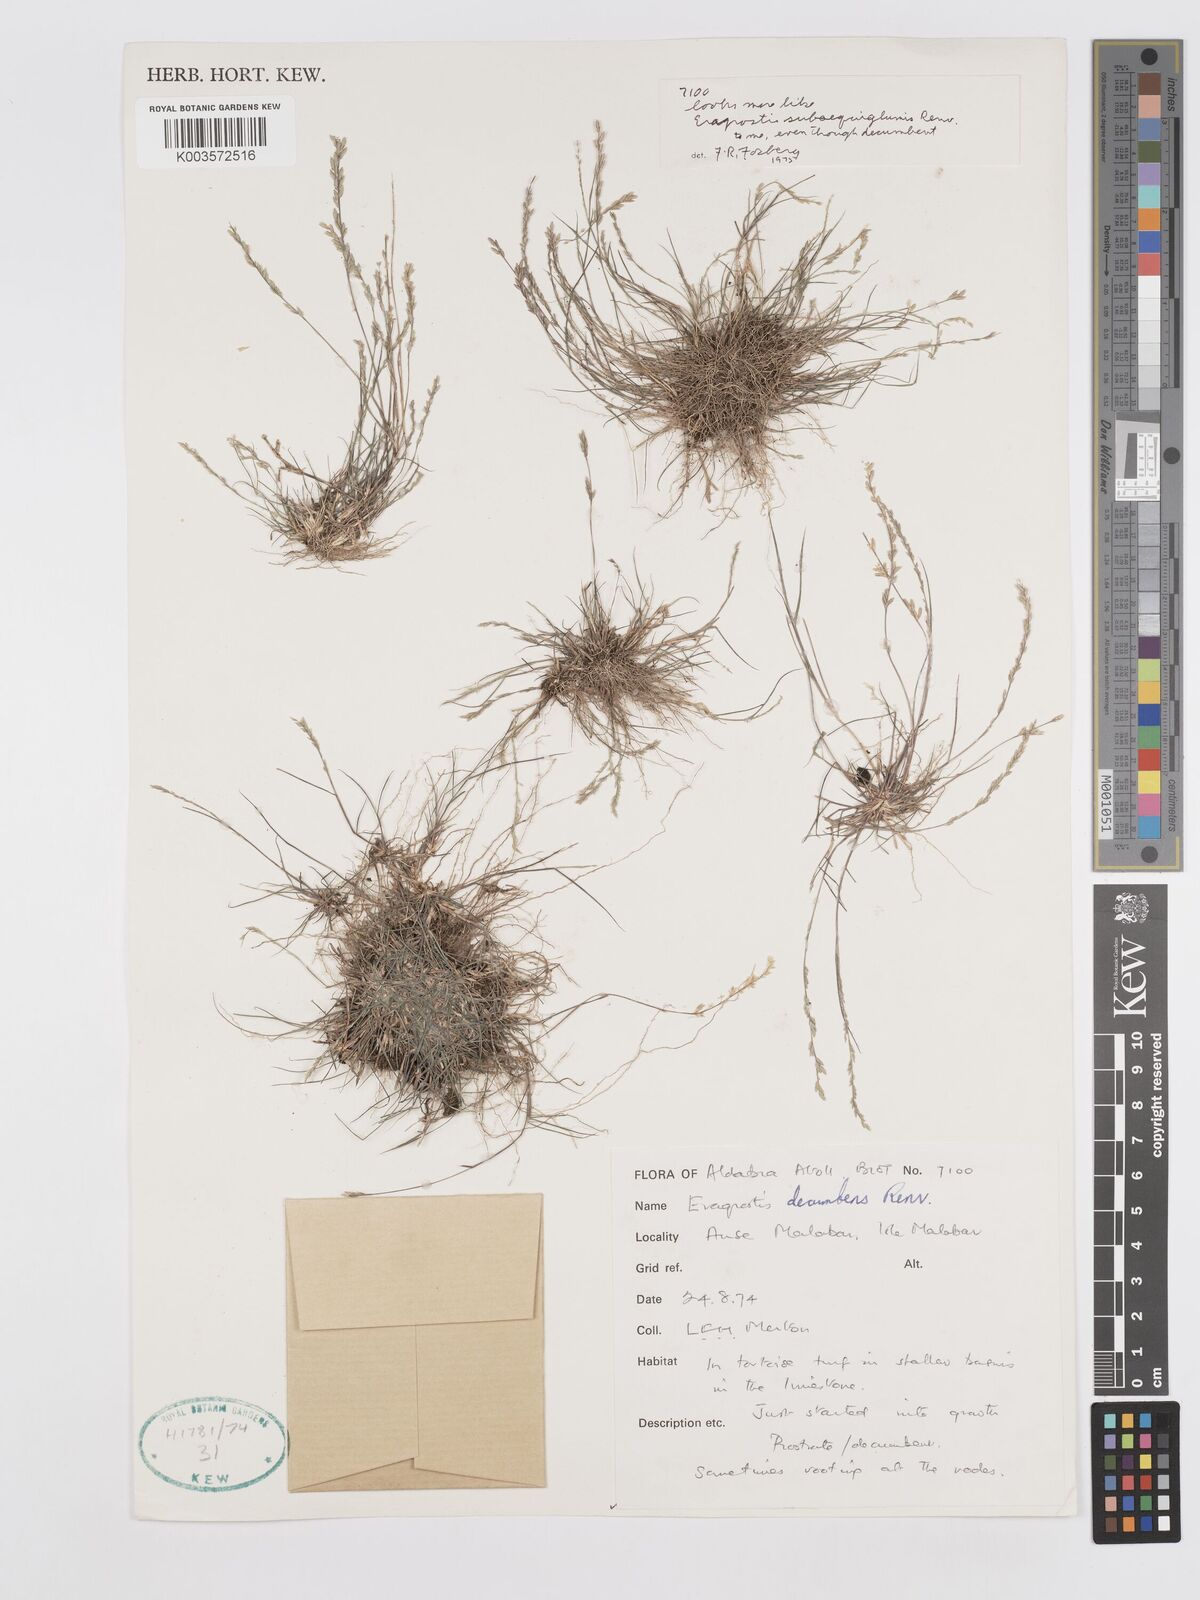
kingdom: Plantae
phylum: Tracheophyta
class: Liliopsida
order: Poales
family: Poaceae
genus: Eragrostis
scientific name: Eragrostis decumbens
